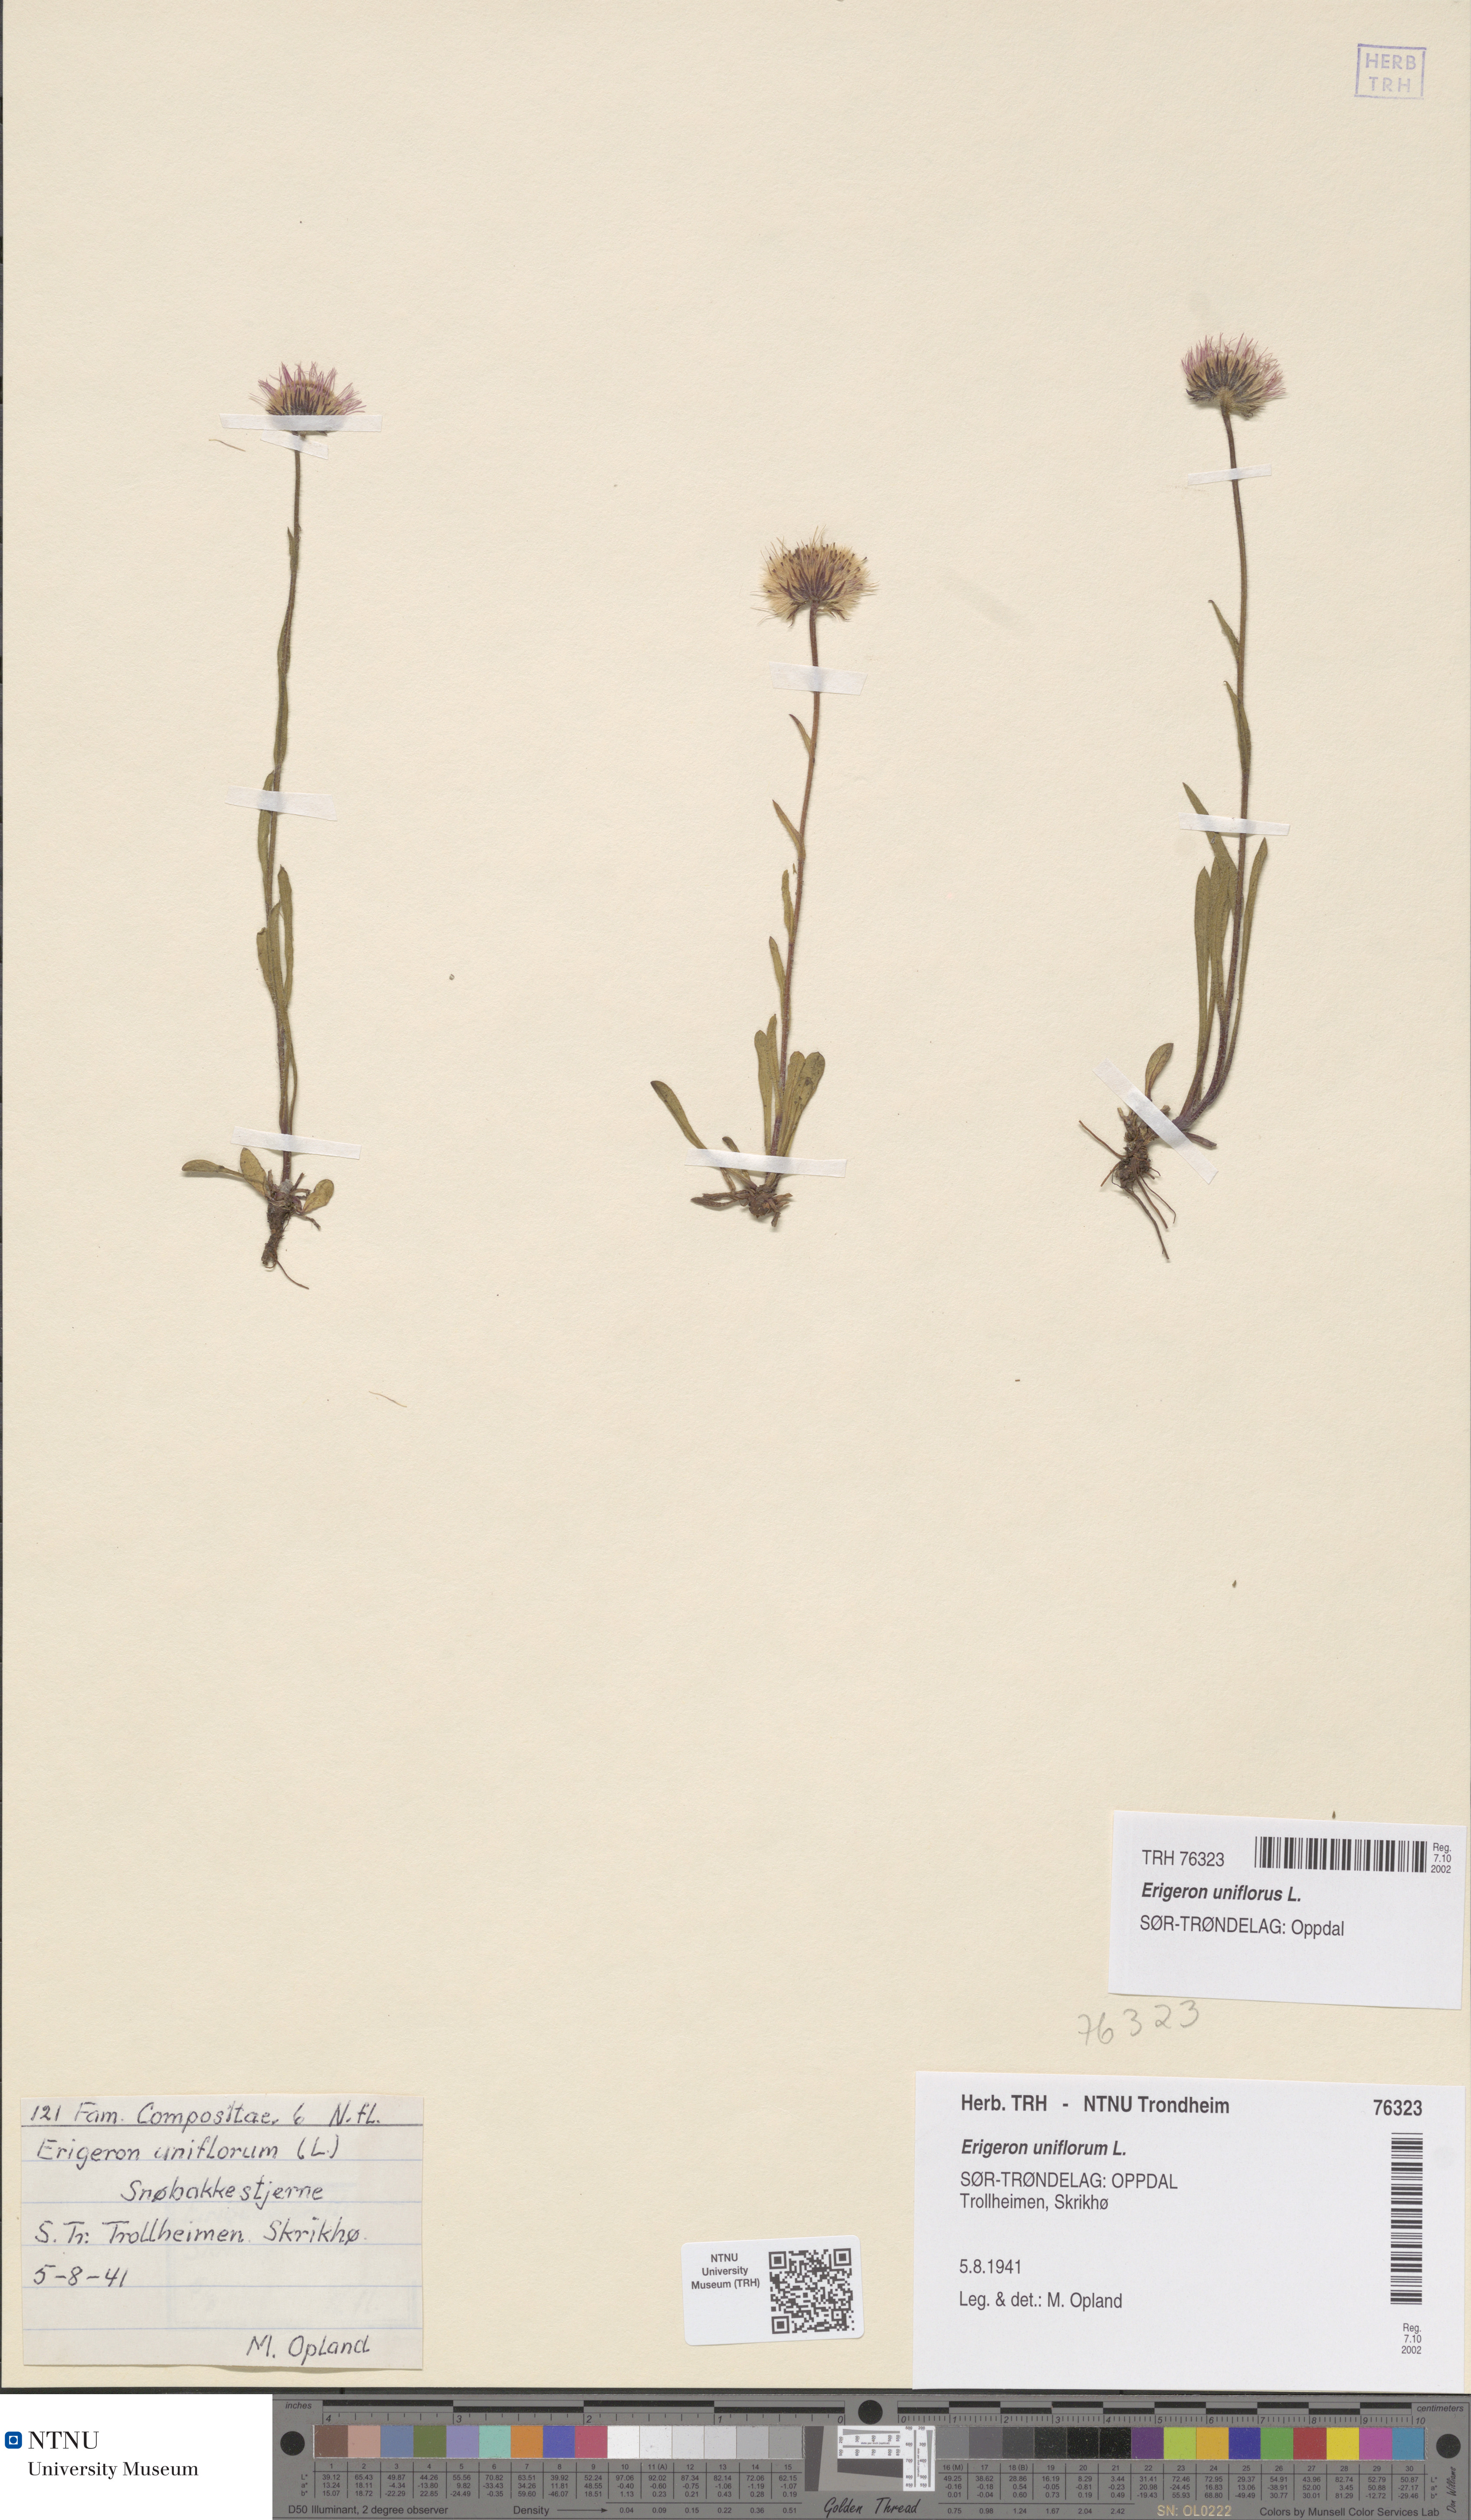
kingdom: Plantae
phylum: Tracheophyta
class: Magnoliopsida
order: Asterales
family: Asteraceae
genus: Erigeron
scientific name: Erigeron uniflorus
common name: Northern daisy
